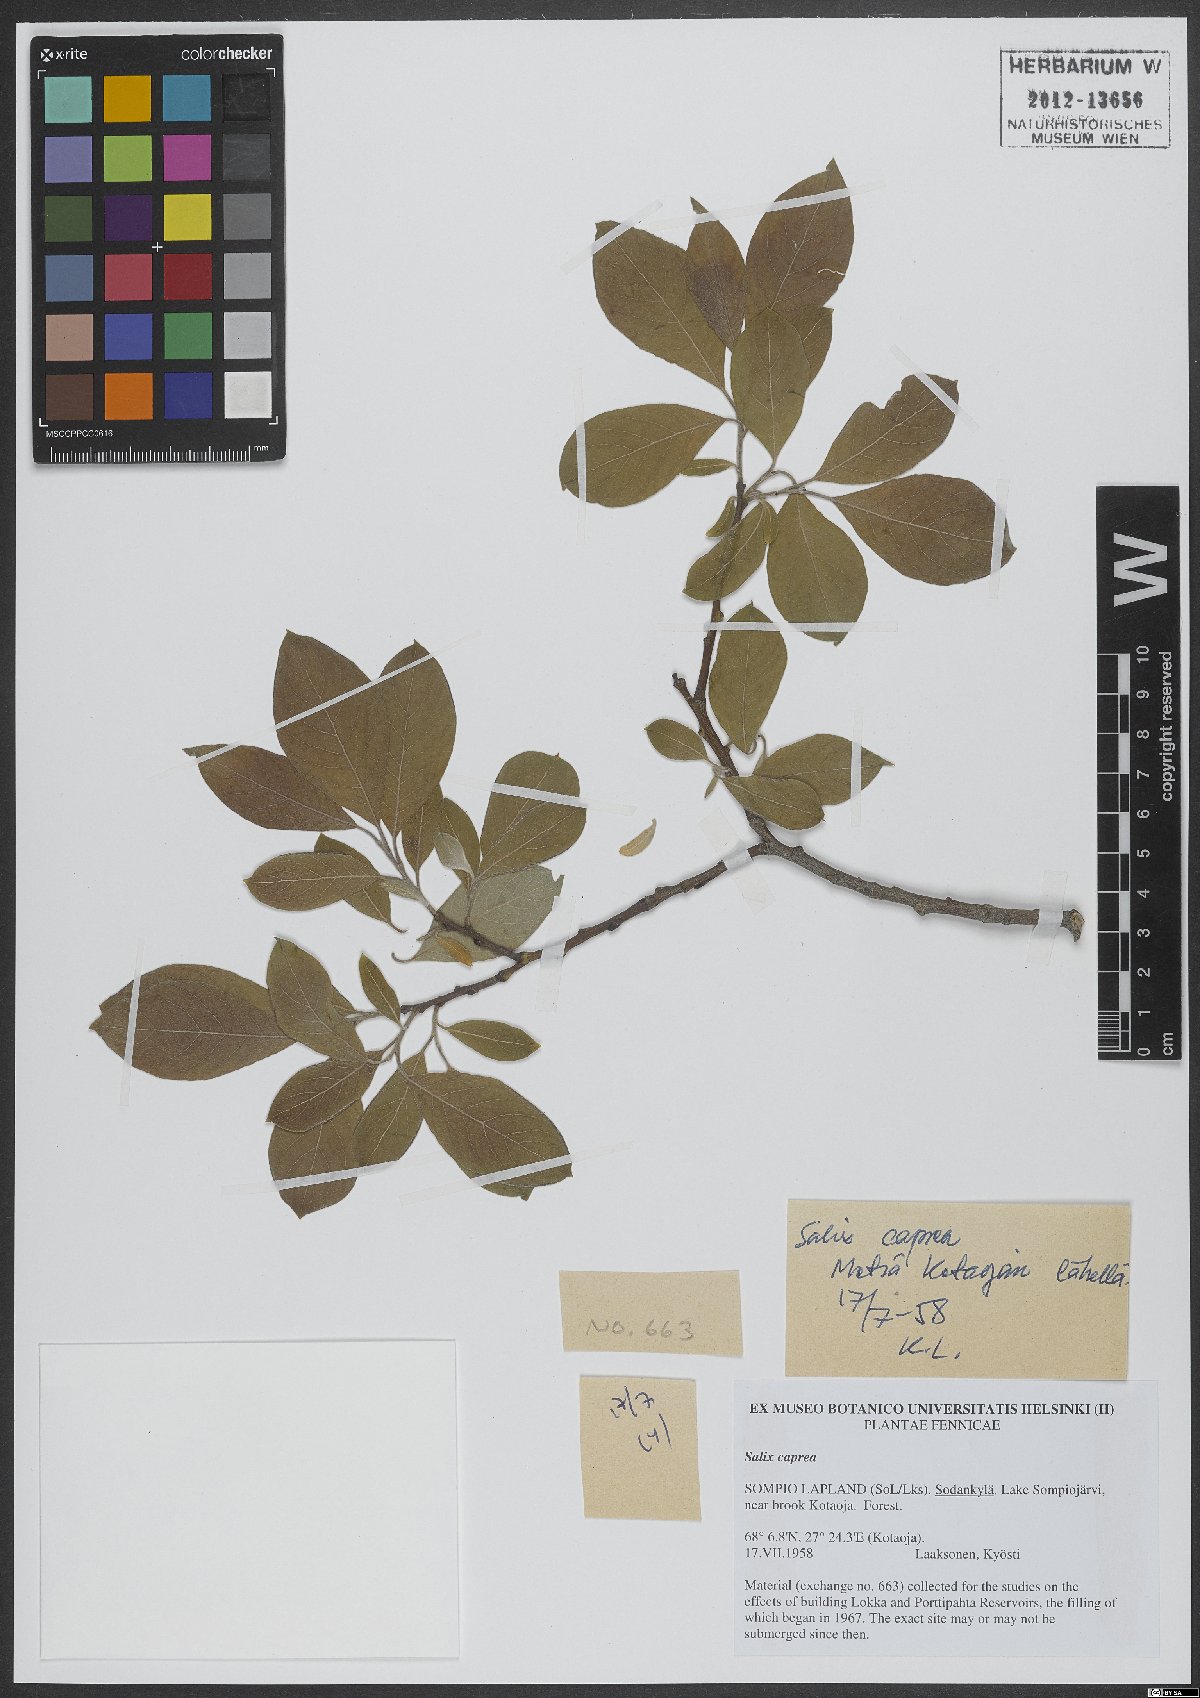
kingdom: Plantae
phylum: Tracheophyta
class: Magnoliopsida
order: Malpighiales
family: Salicaceae
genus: Salix
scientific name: Salix caprea
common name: Goat willow
